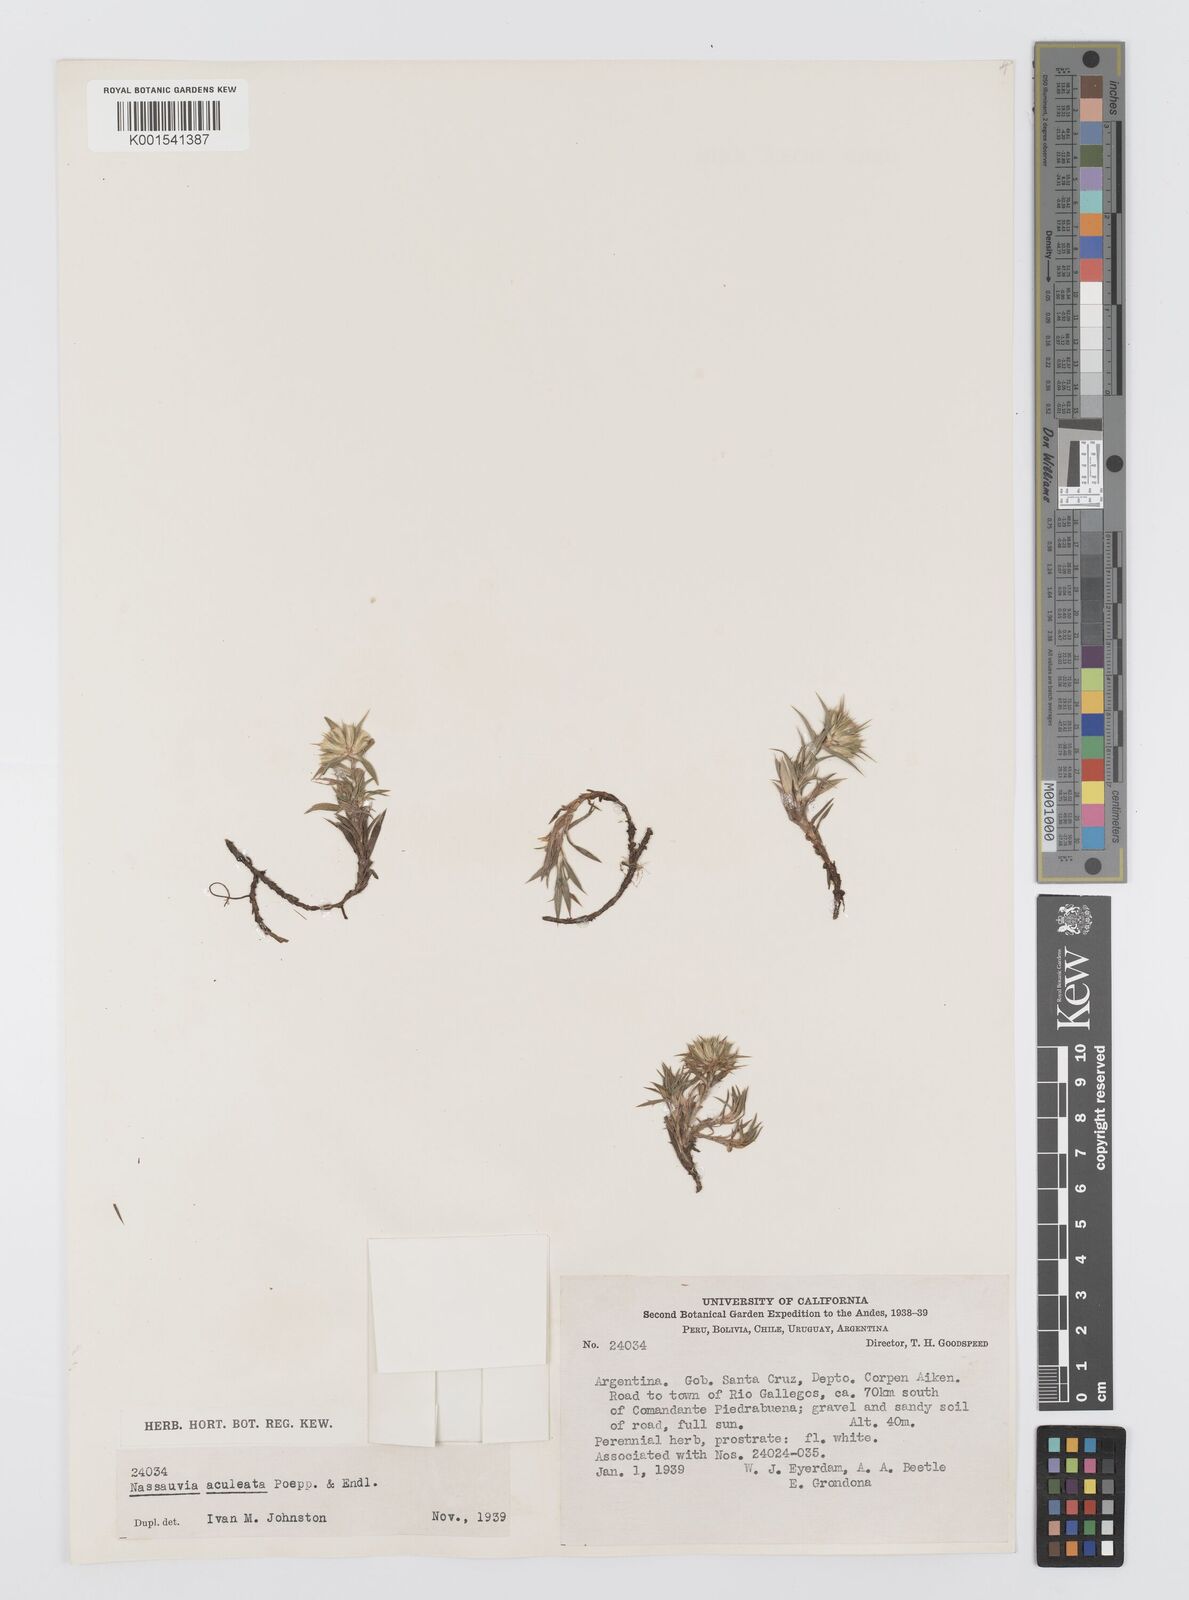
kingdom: Plantae
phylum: Tracheophyta
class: Magnoliopsida
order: Asterales
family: Asteraceae
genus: Nassauvia
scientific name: Nassauvia aculeata
